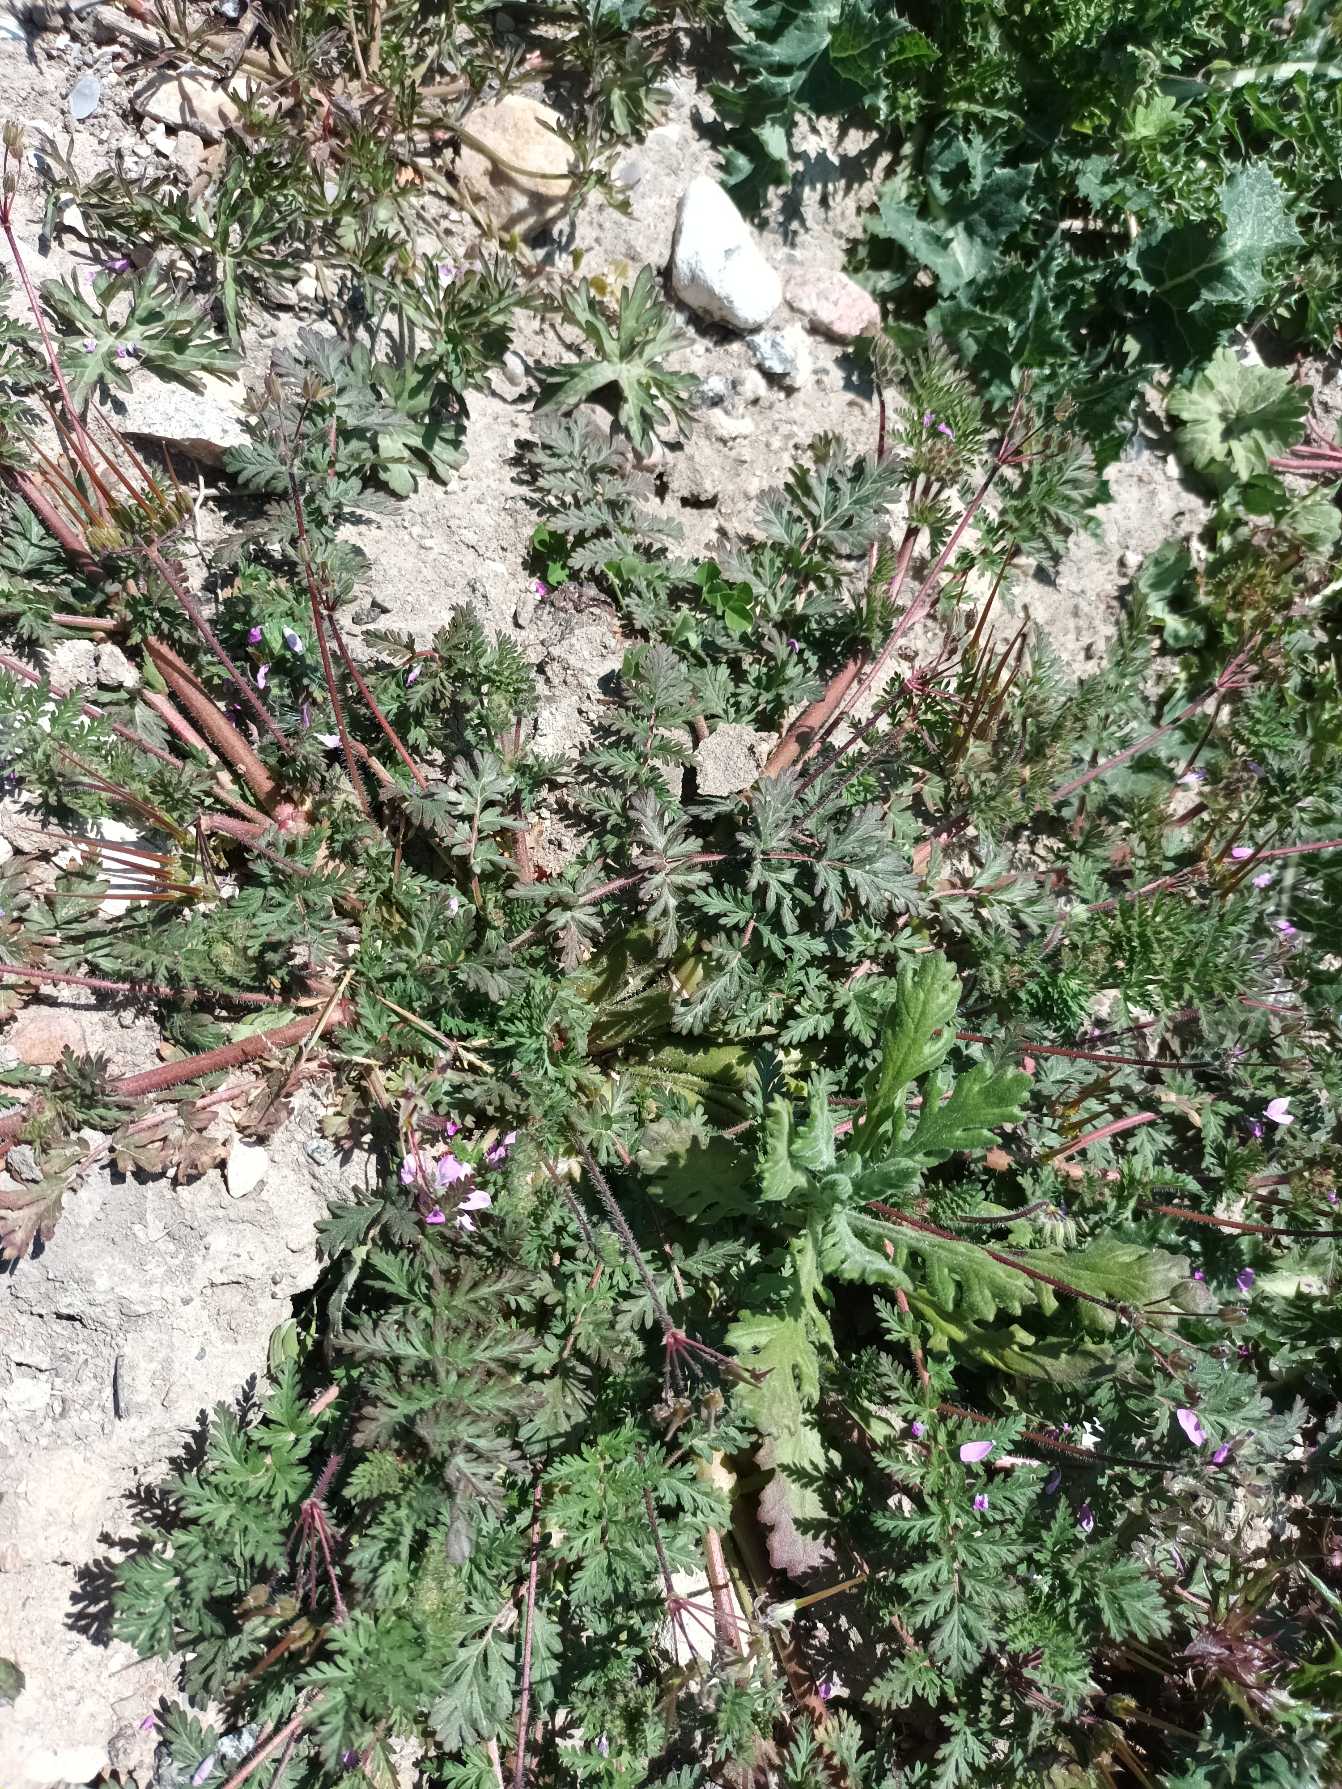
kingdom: Plantae
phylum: Tracheophyta
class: Magnoliopsida
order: Geraniales
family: Geraniaceae
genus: Erodium
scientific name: Erodium cicutarium
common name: Hejrenæb
